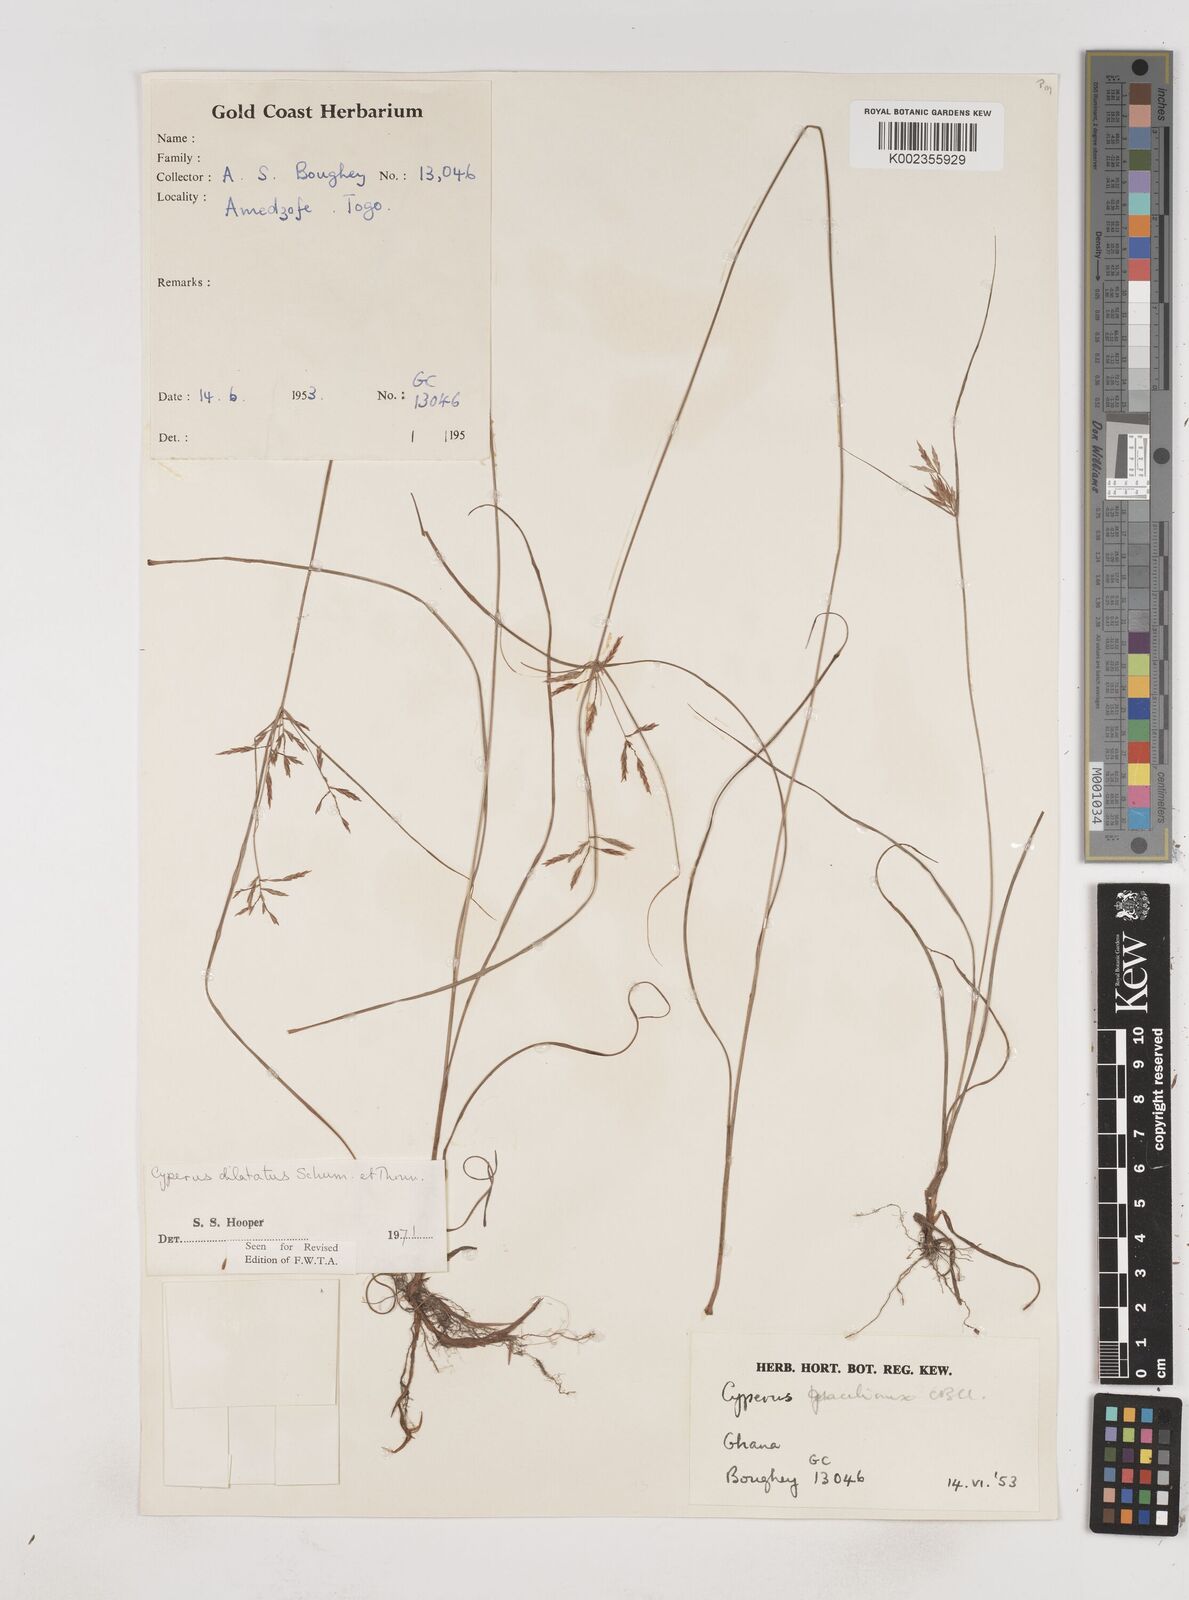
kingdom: Plantae
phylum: Tracheophyta
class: Liliopsida
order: Poales
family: Cyperaceae
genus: Cyperus
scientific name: Cyperus dilatatus
